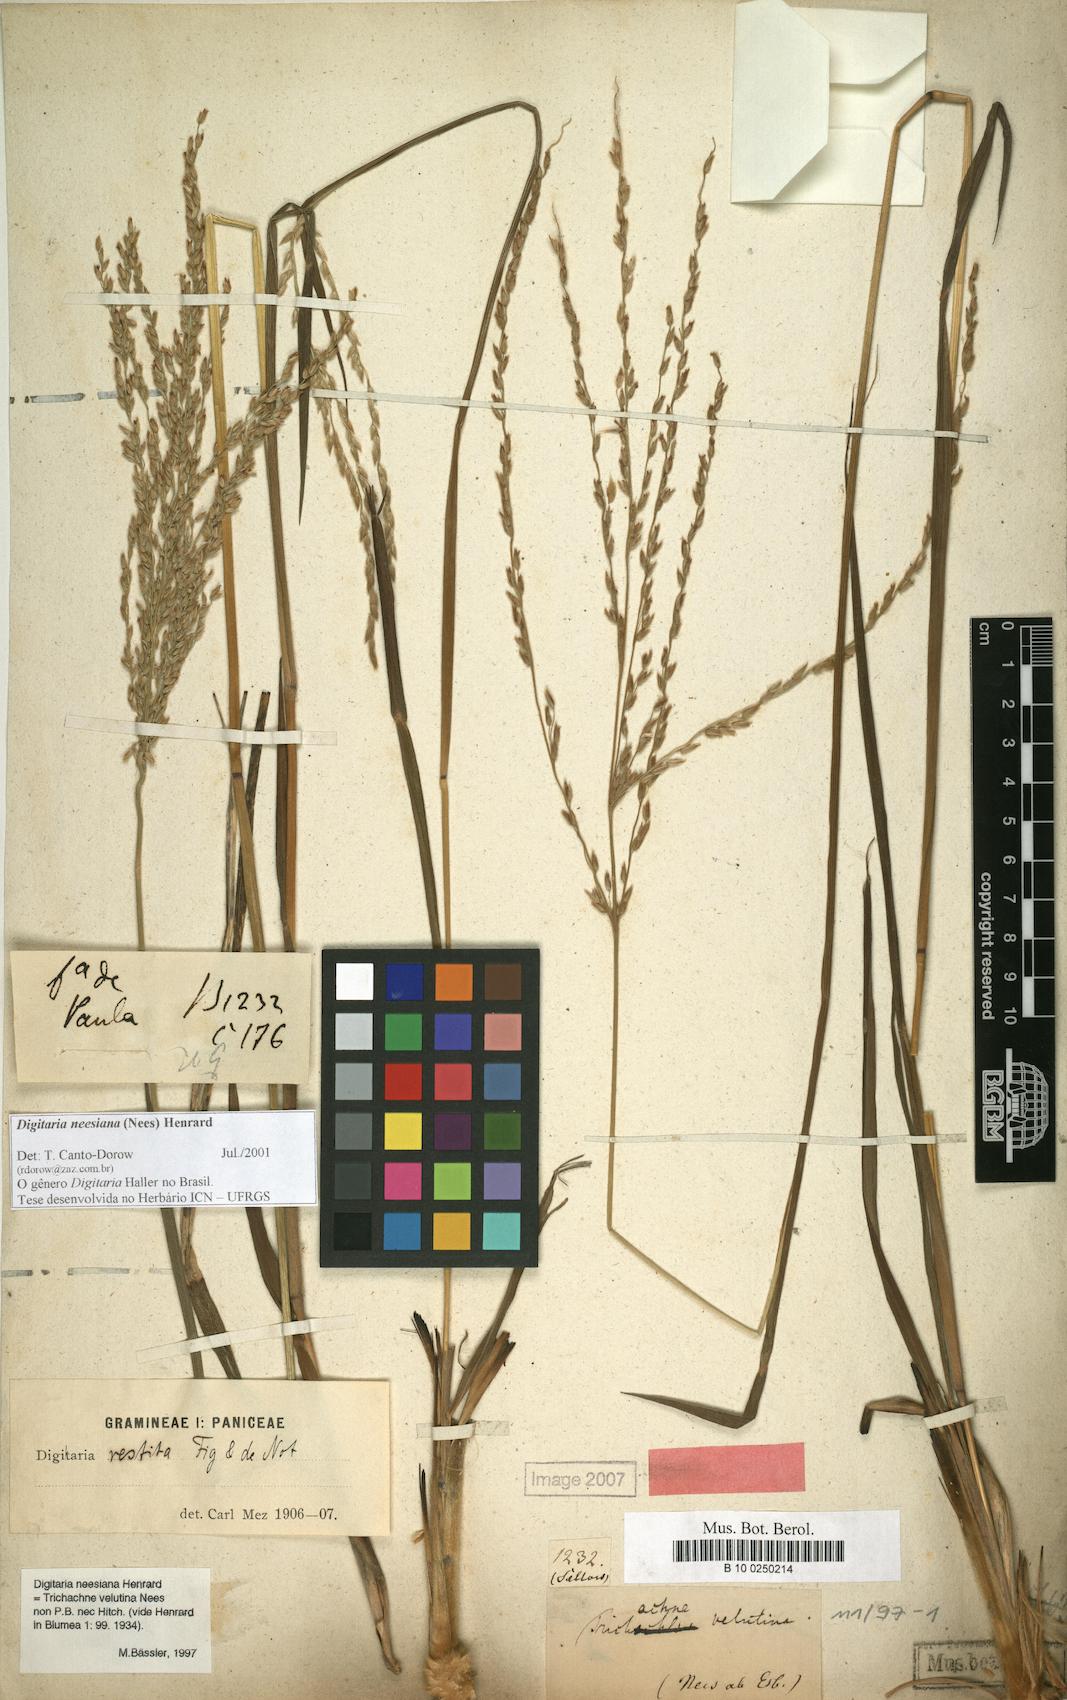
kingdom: Plantae
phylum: Tracheophyta
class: Liliopsida
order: Poales
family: Poaceae
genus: Digitaria
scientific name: Digitaria neesiana
